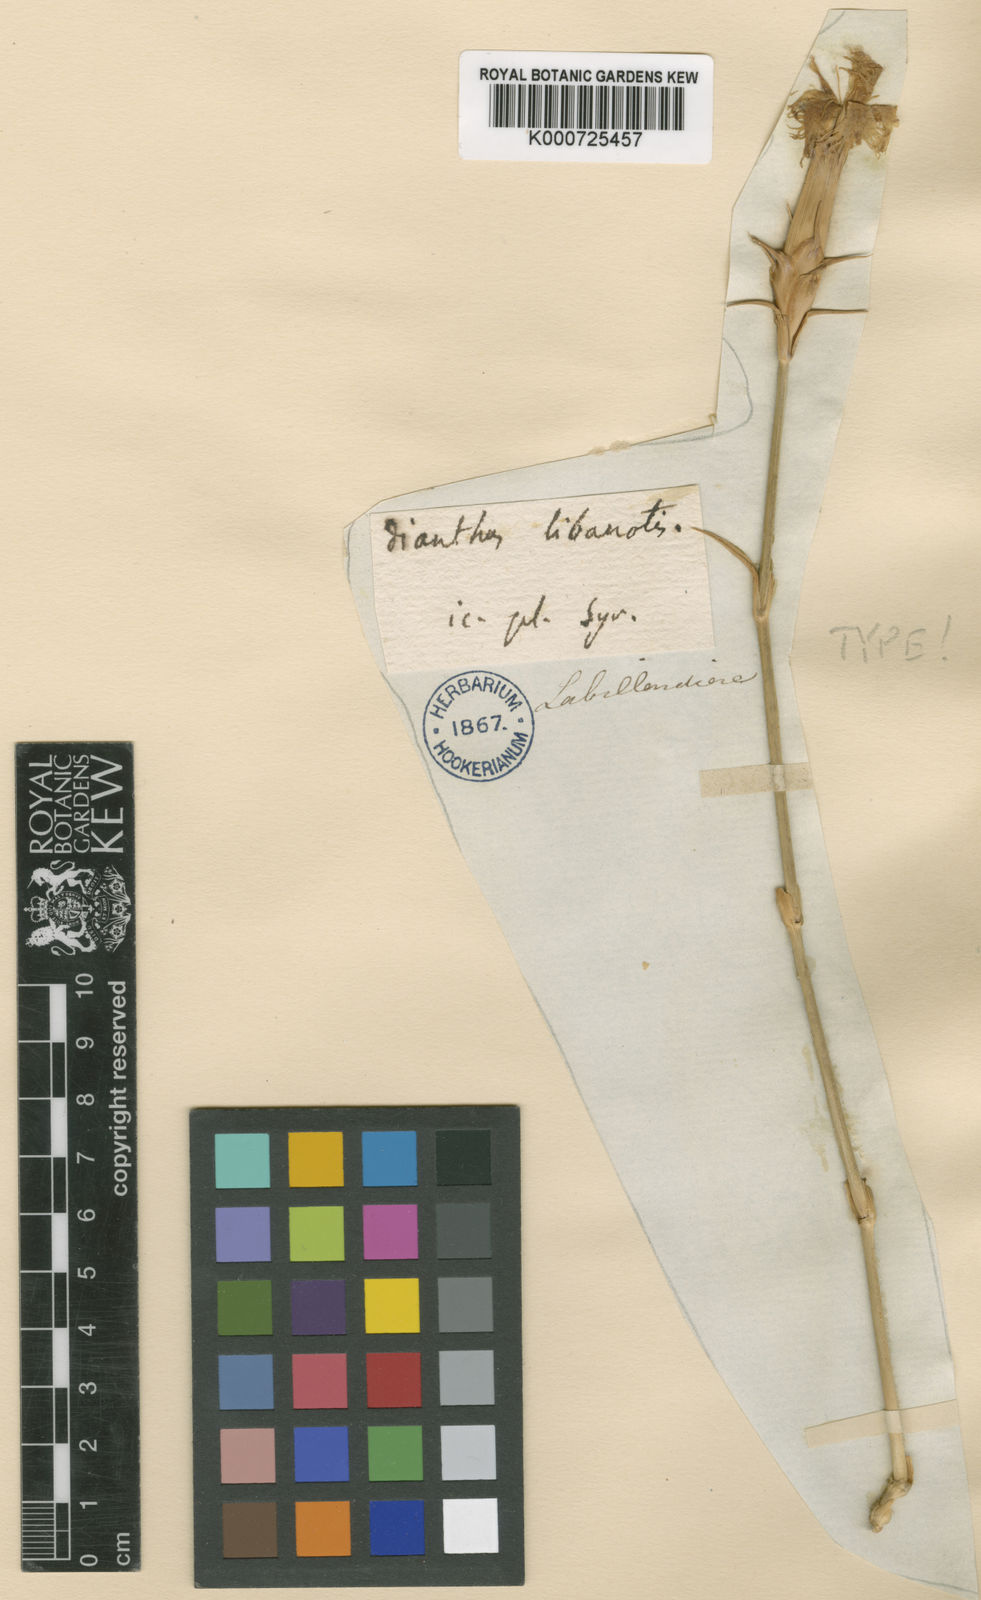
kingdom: Plantae
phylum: Tracheophyta
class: Magnoliopsida
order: Caryophyllales
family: Caryophyllaceae
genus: Dianthus
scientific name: Dianthus libanotis
